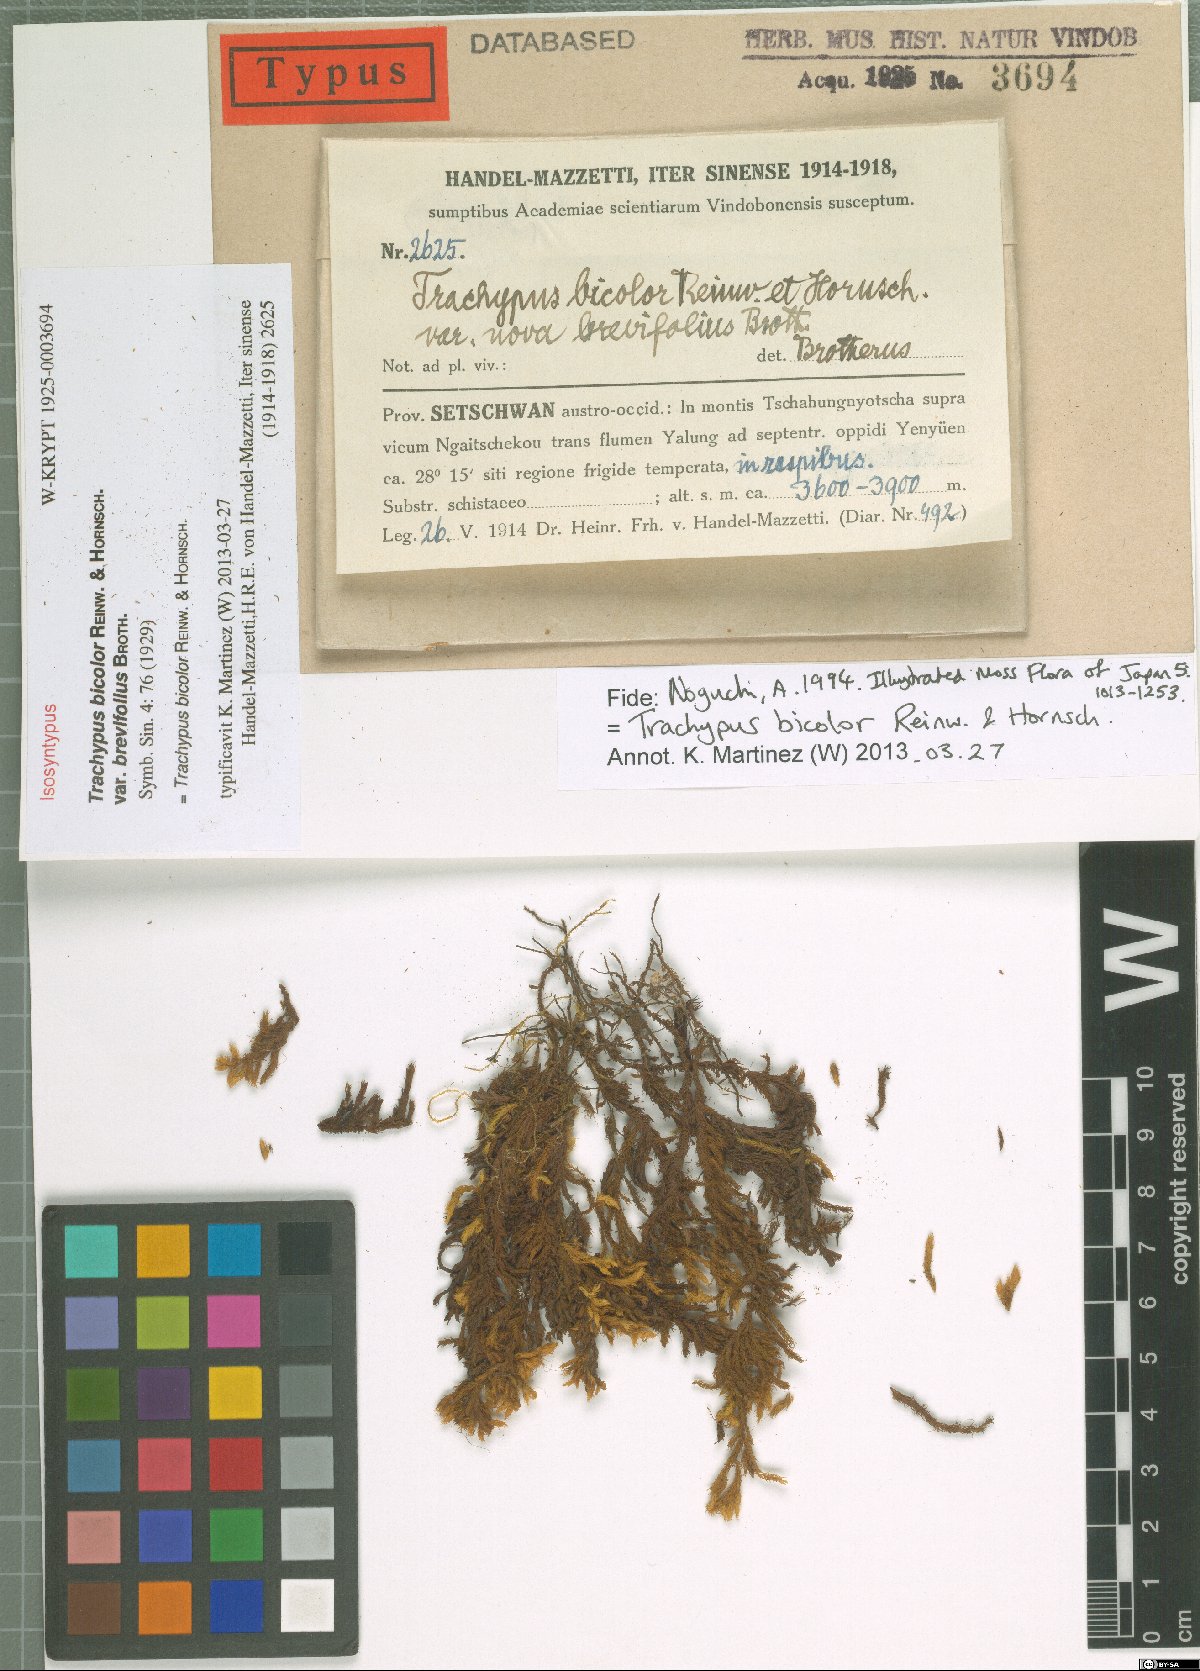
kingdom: Plantae
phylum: Bryophyta
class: Bryopsida
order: Hypnales
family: Meteoriaceae
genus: Trachypus
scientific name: Trachypus bicolor
